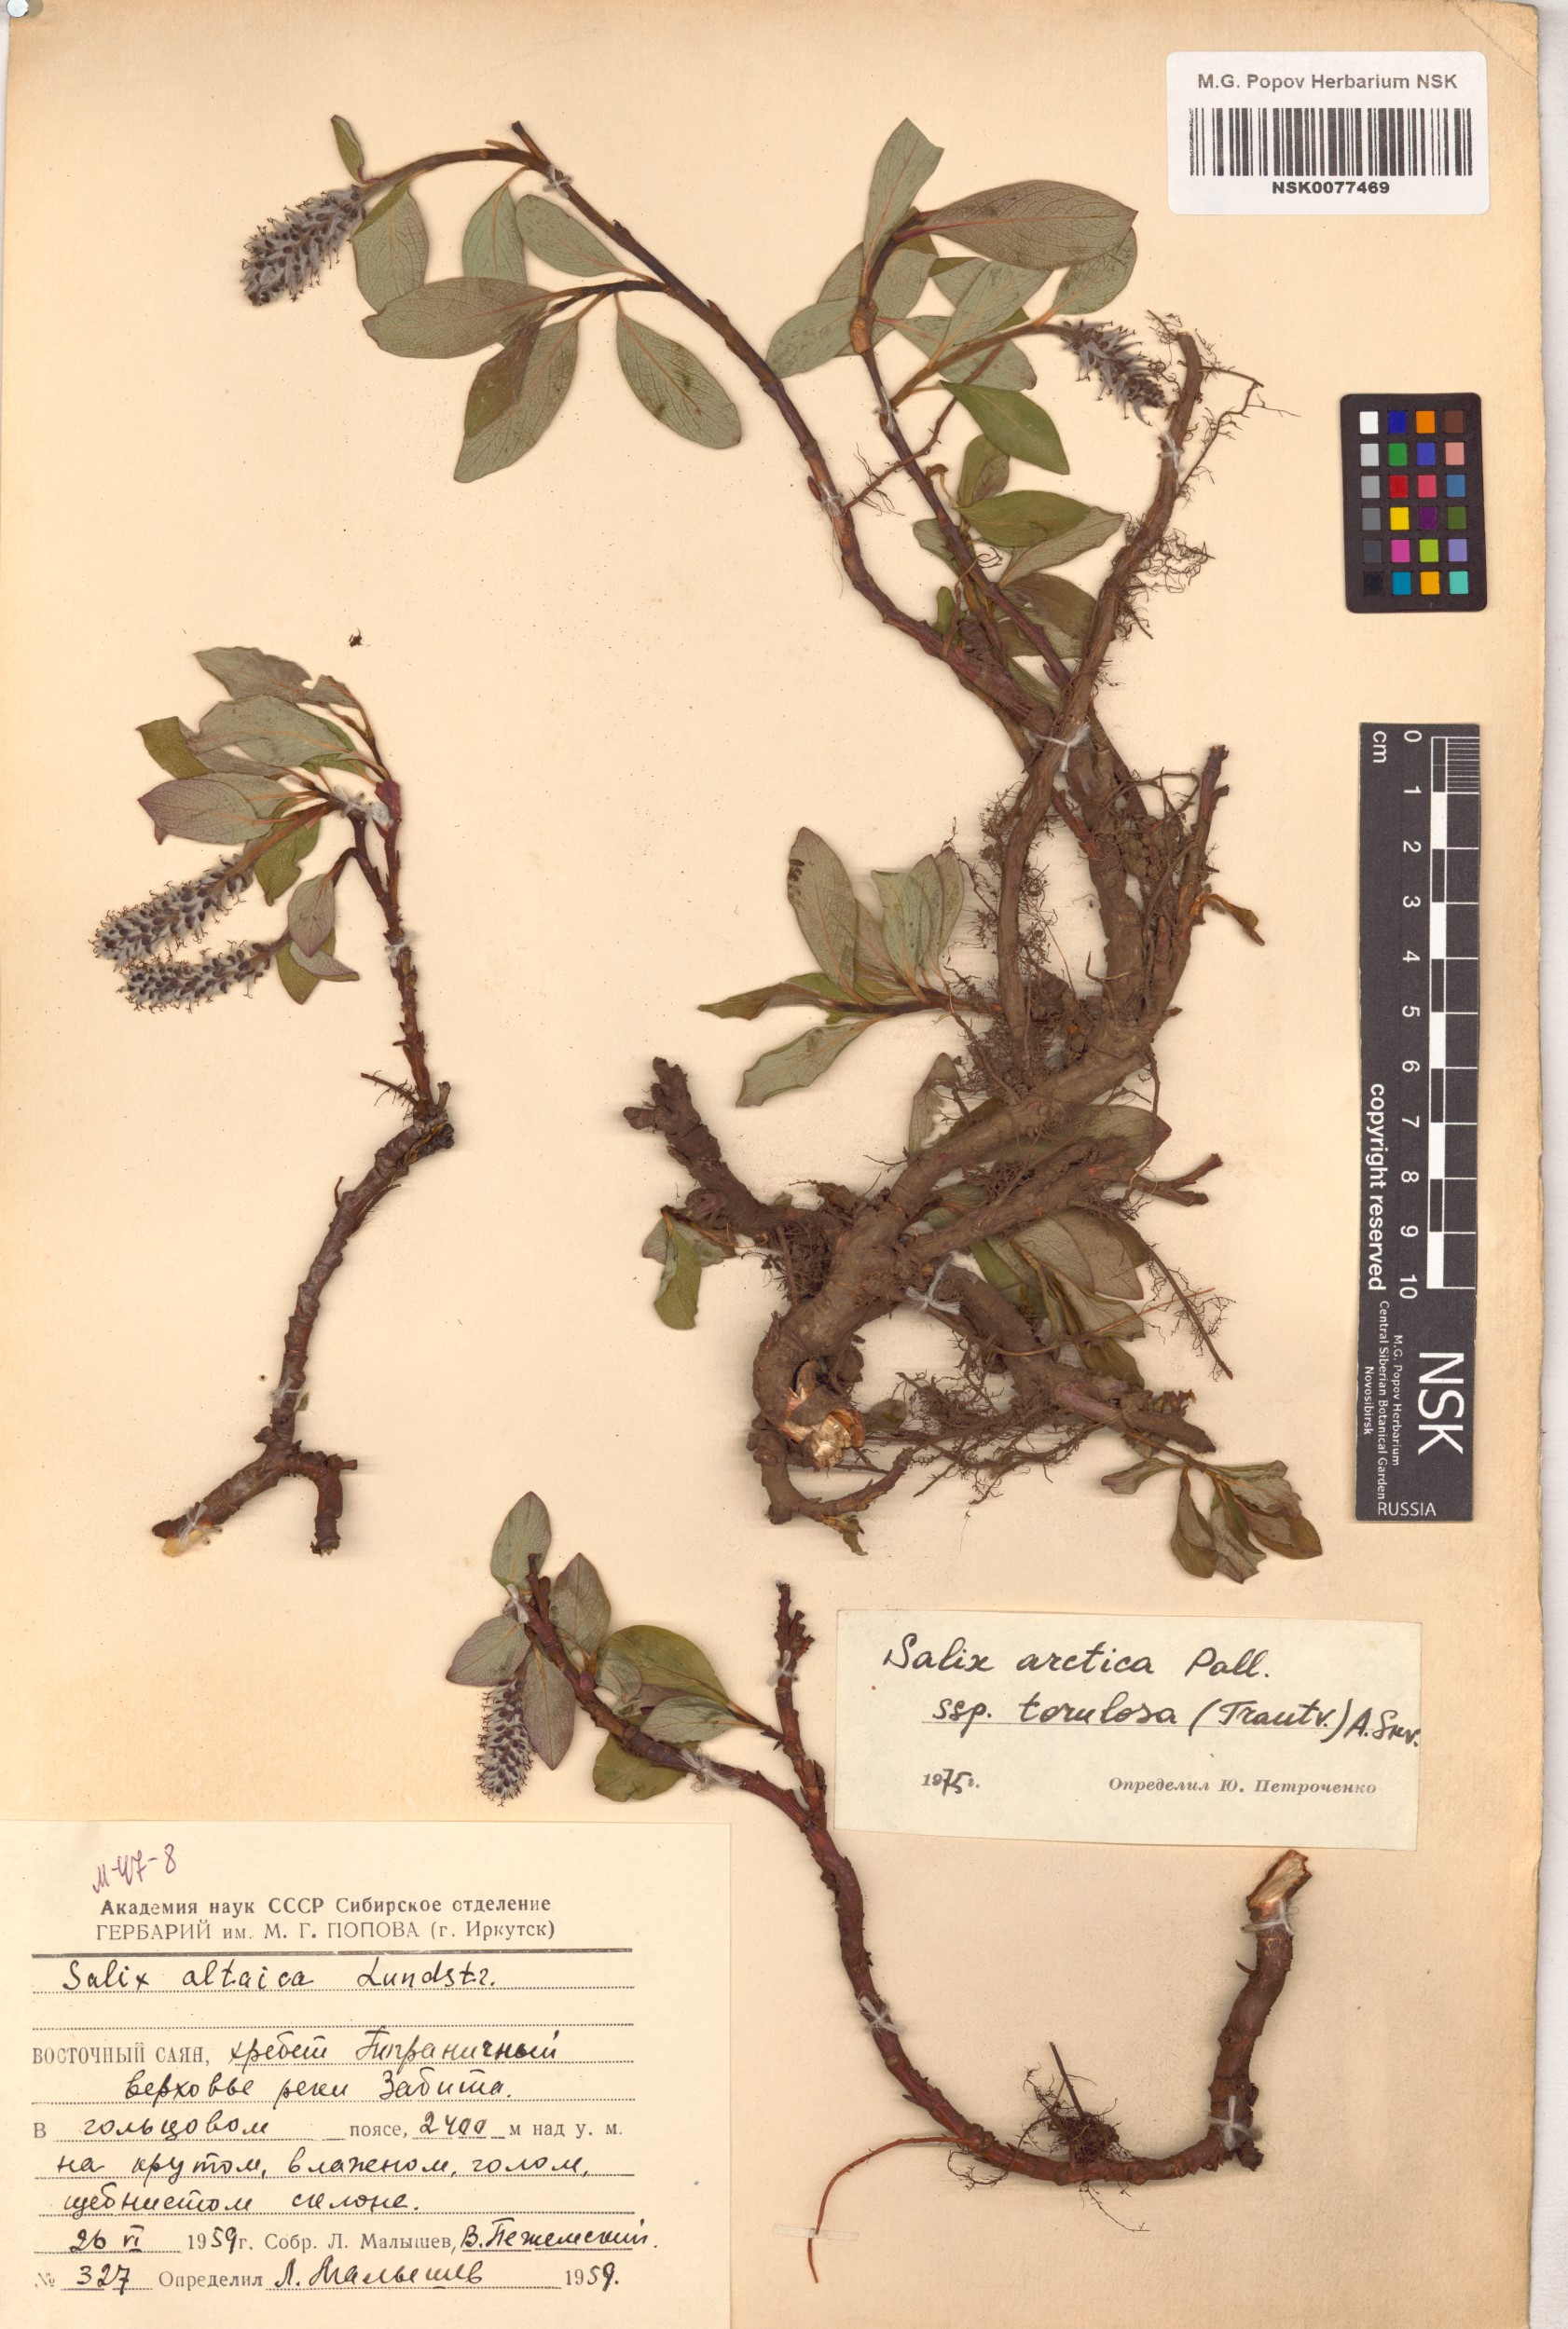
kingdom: Plantae
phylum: Tracheophyta
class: Magnoliopsida
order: Malpighiales
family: Salicaceae
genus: Salix
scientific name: Salix arctica
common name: Arctic willow
